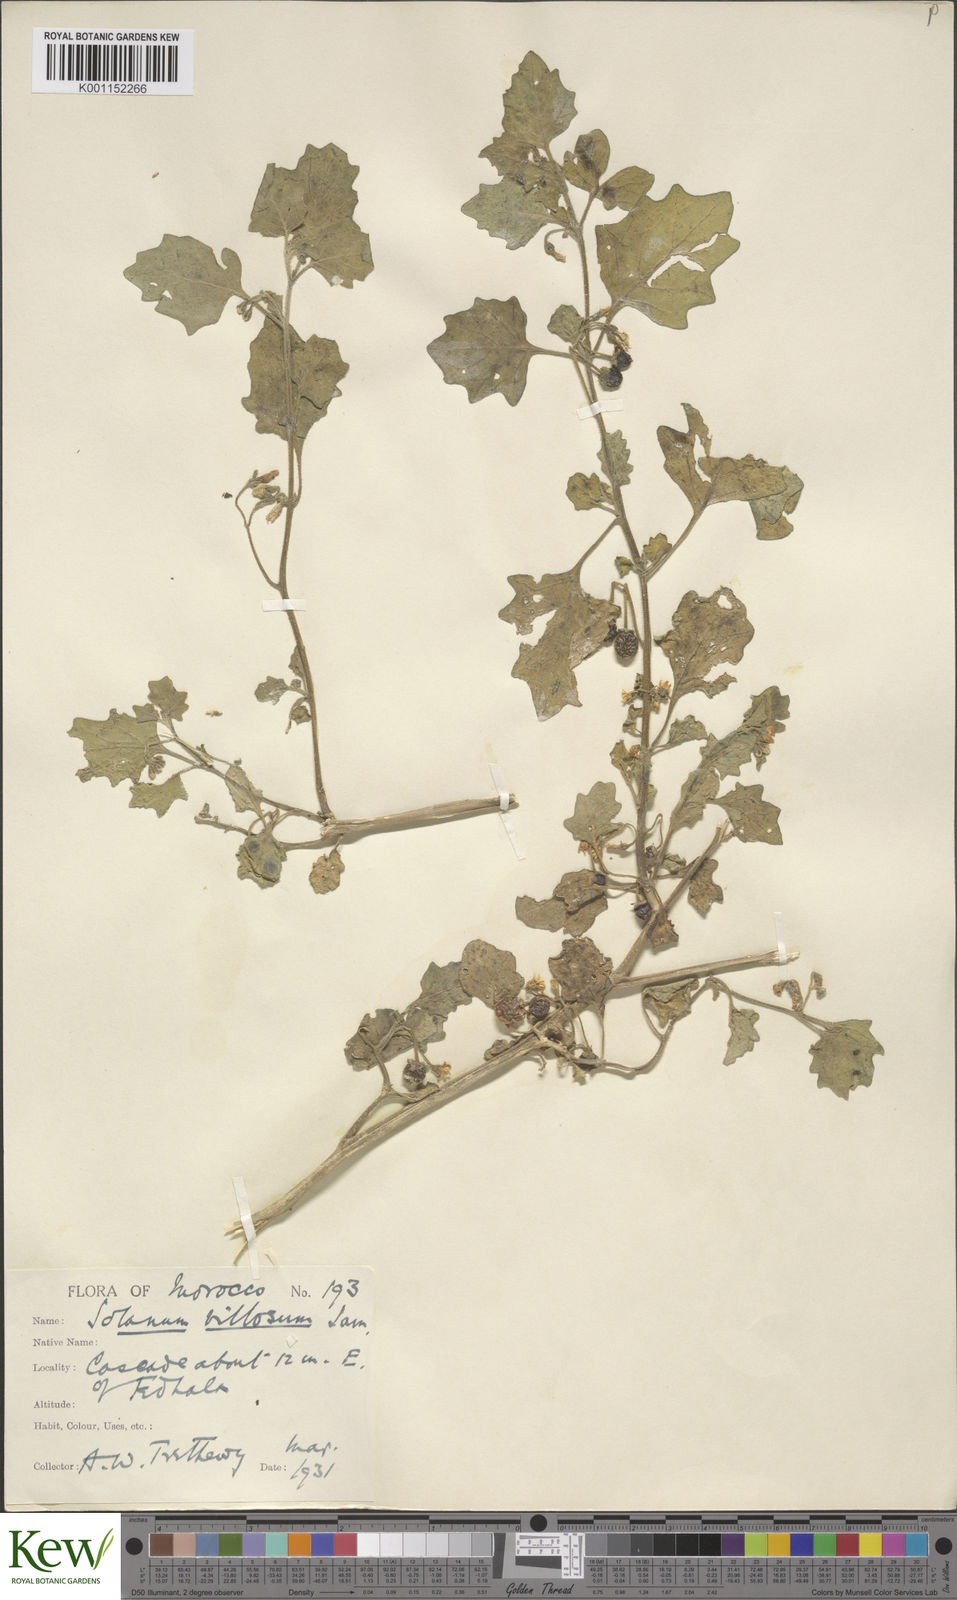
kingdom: Plantae
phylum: Tracheophyta
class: Magnoliopsida
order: Solanales
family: Solanaceae
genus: Solanum
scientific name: Solanum villosum
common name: Red nightshade
